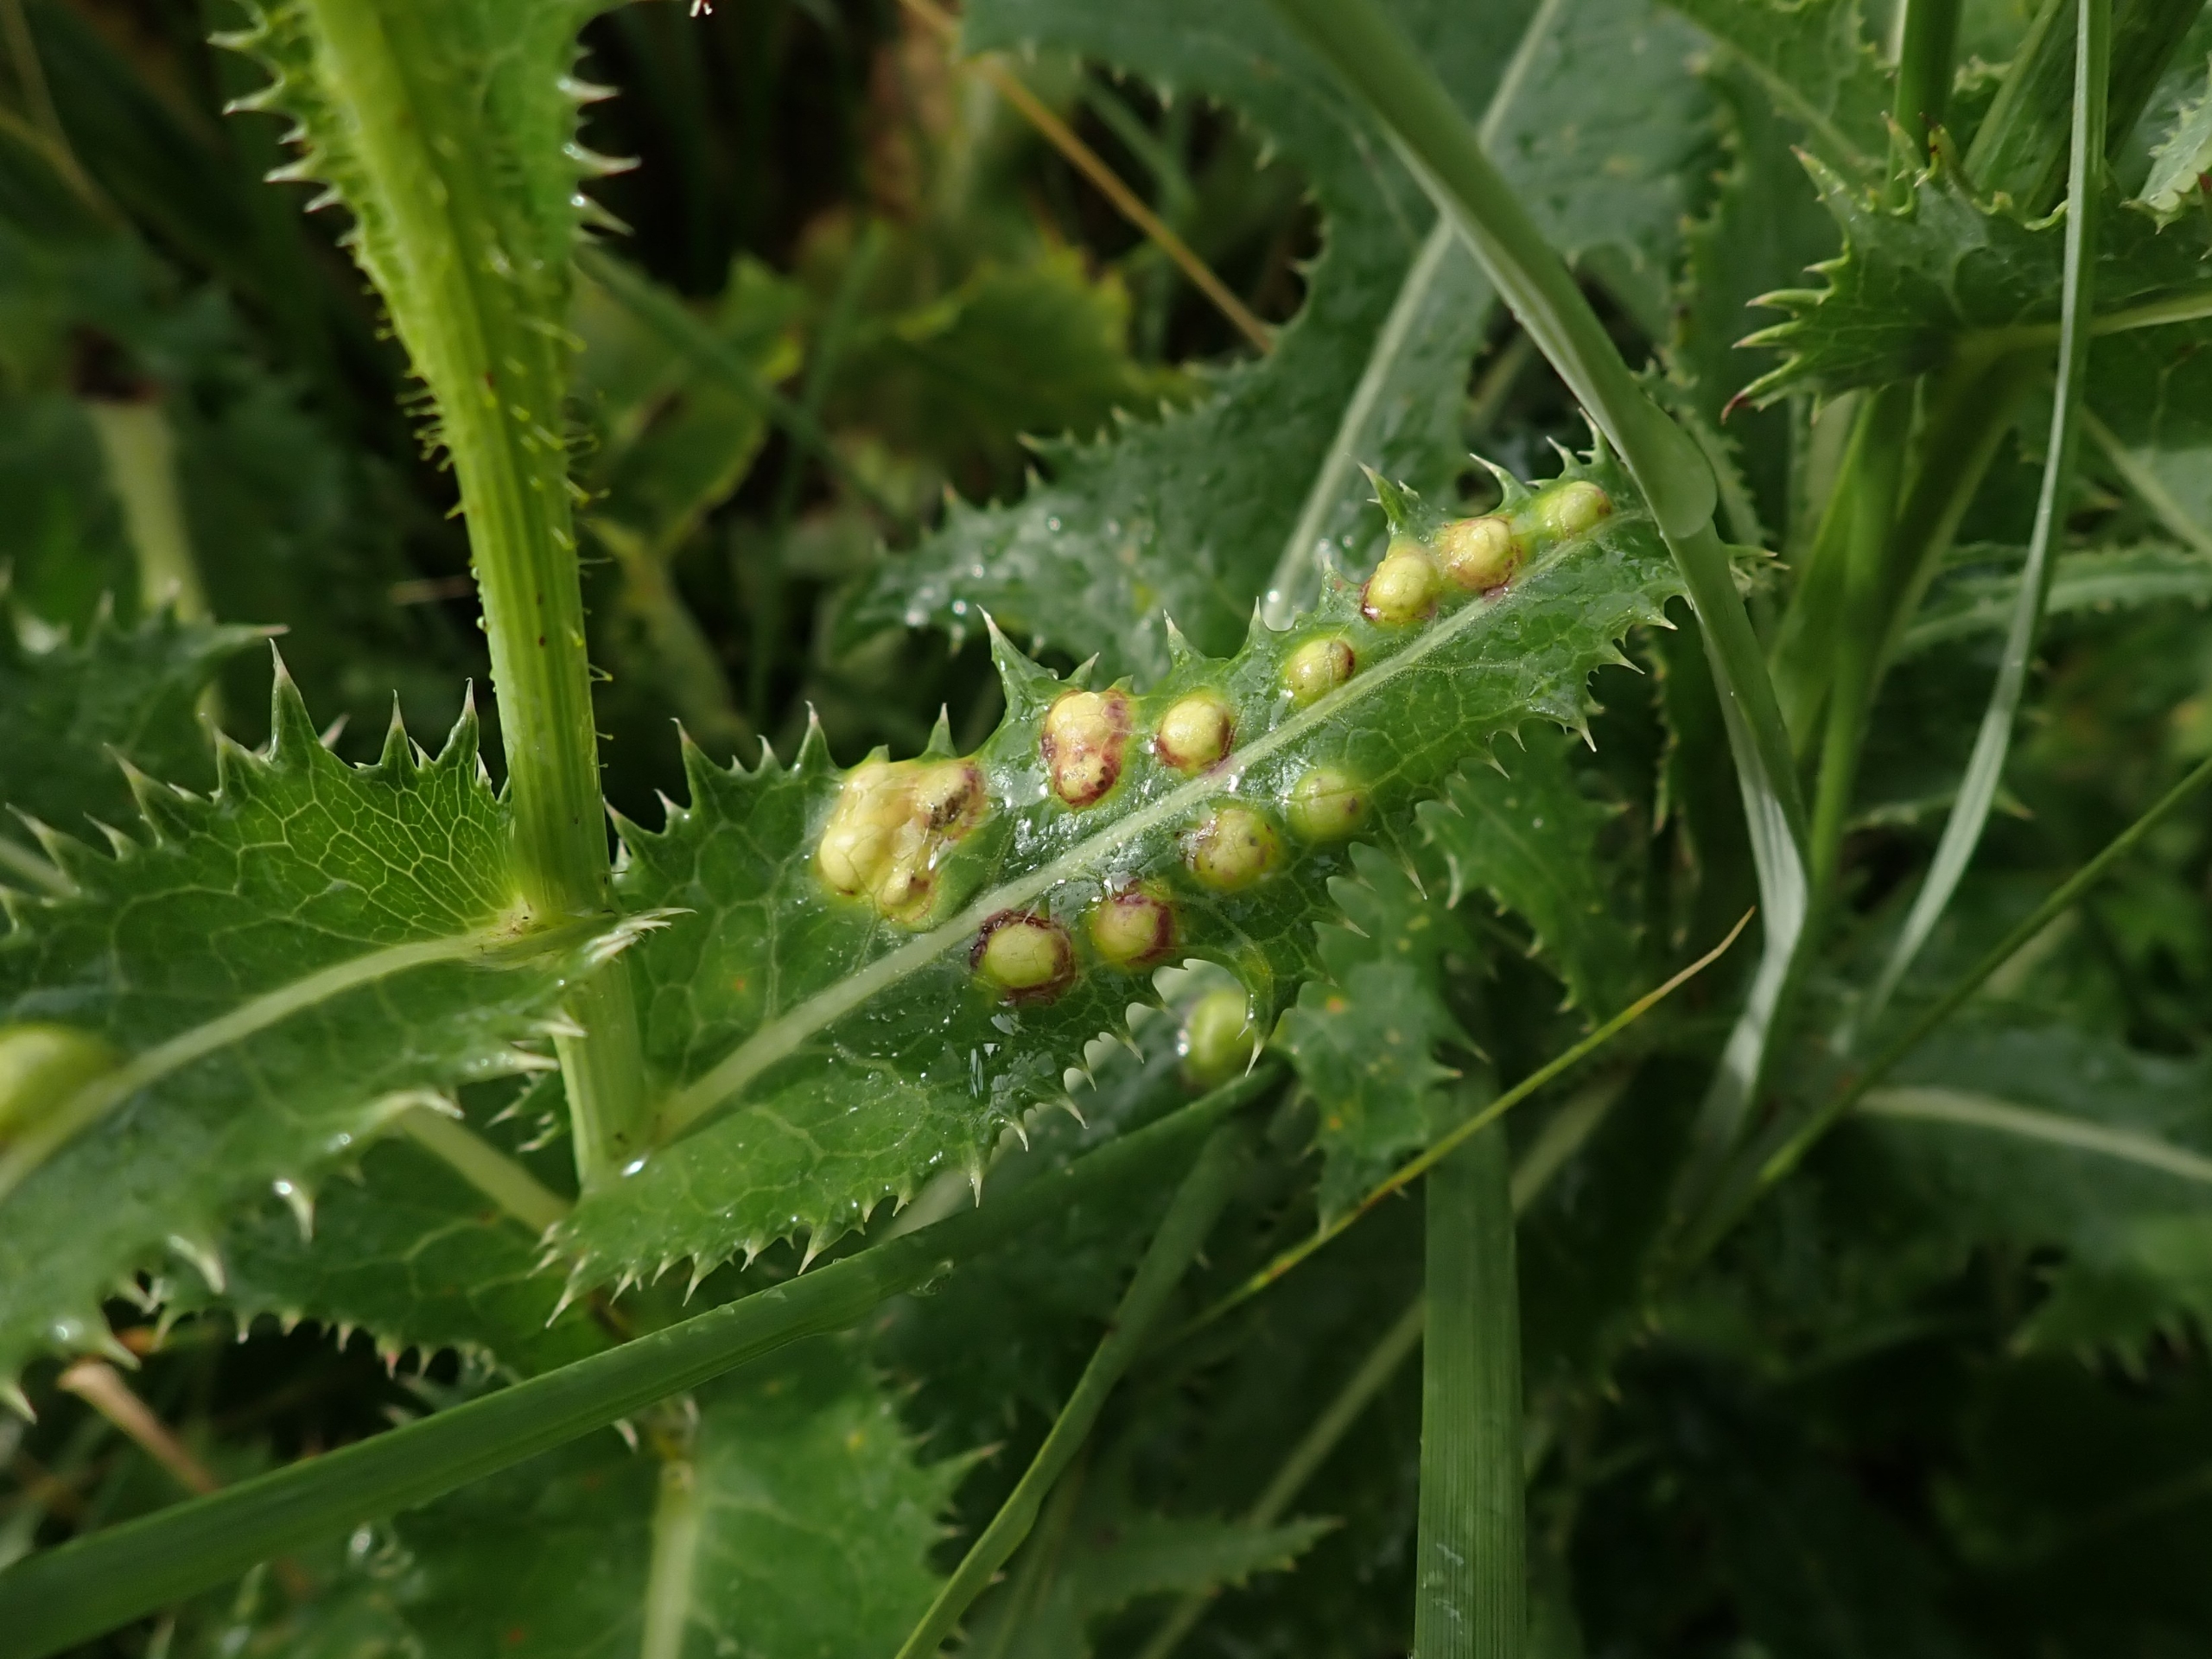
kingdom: Animalia
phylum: Arthropoda
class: Insecta
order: Diptera
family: Cecidomyiidae
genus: Cystiphora
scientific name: Cystiphora sonchi
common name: Svineblæregalmyg
